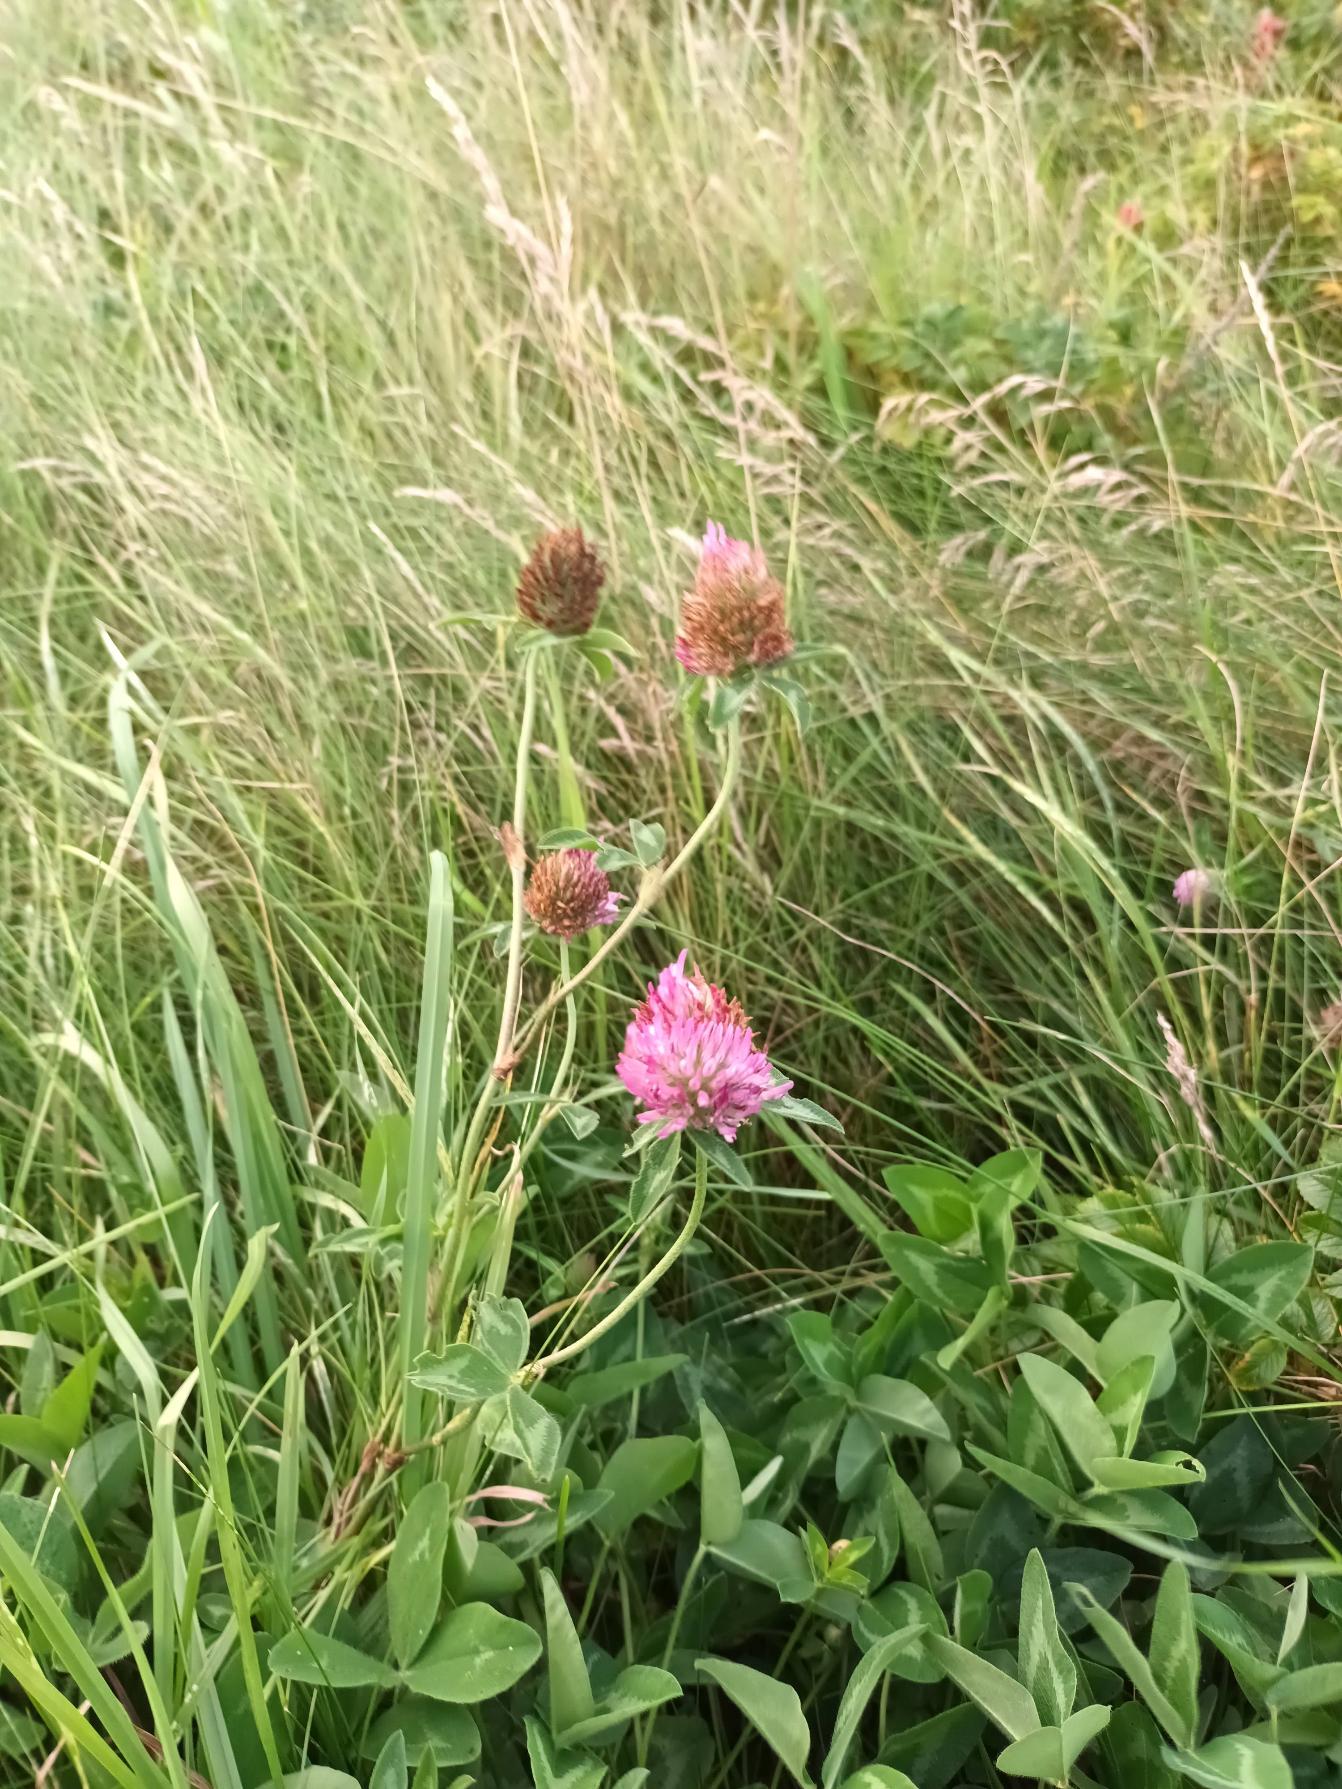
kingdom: Plantae
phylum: Tracheophyta
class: Magnoliopsida
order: Fabales
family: Fabaceae
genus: Trifolium
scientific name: Trifolium pratense
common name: Rød-kløver
